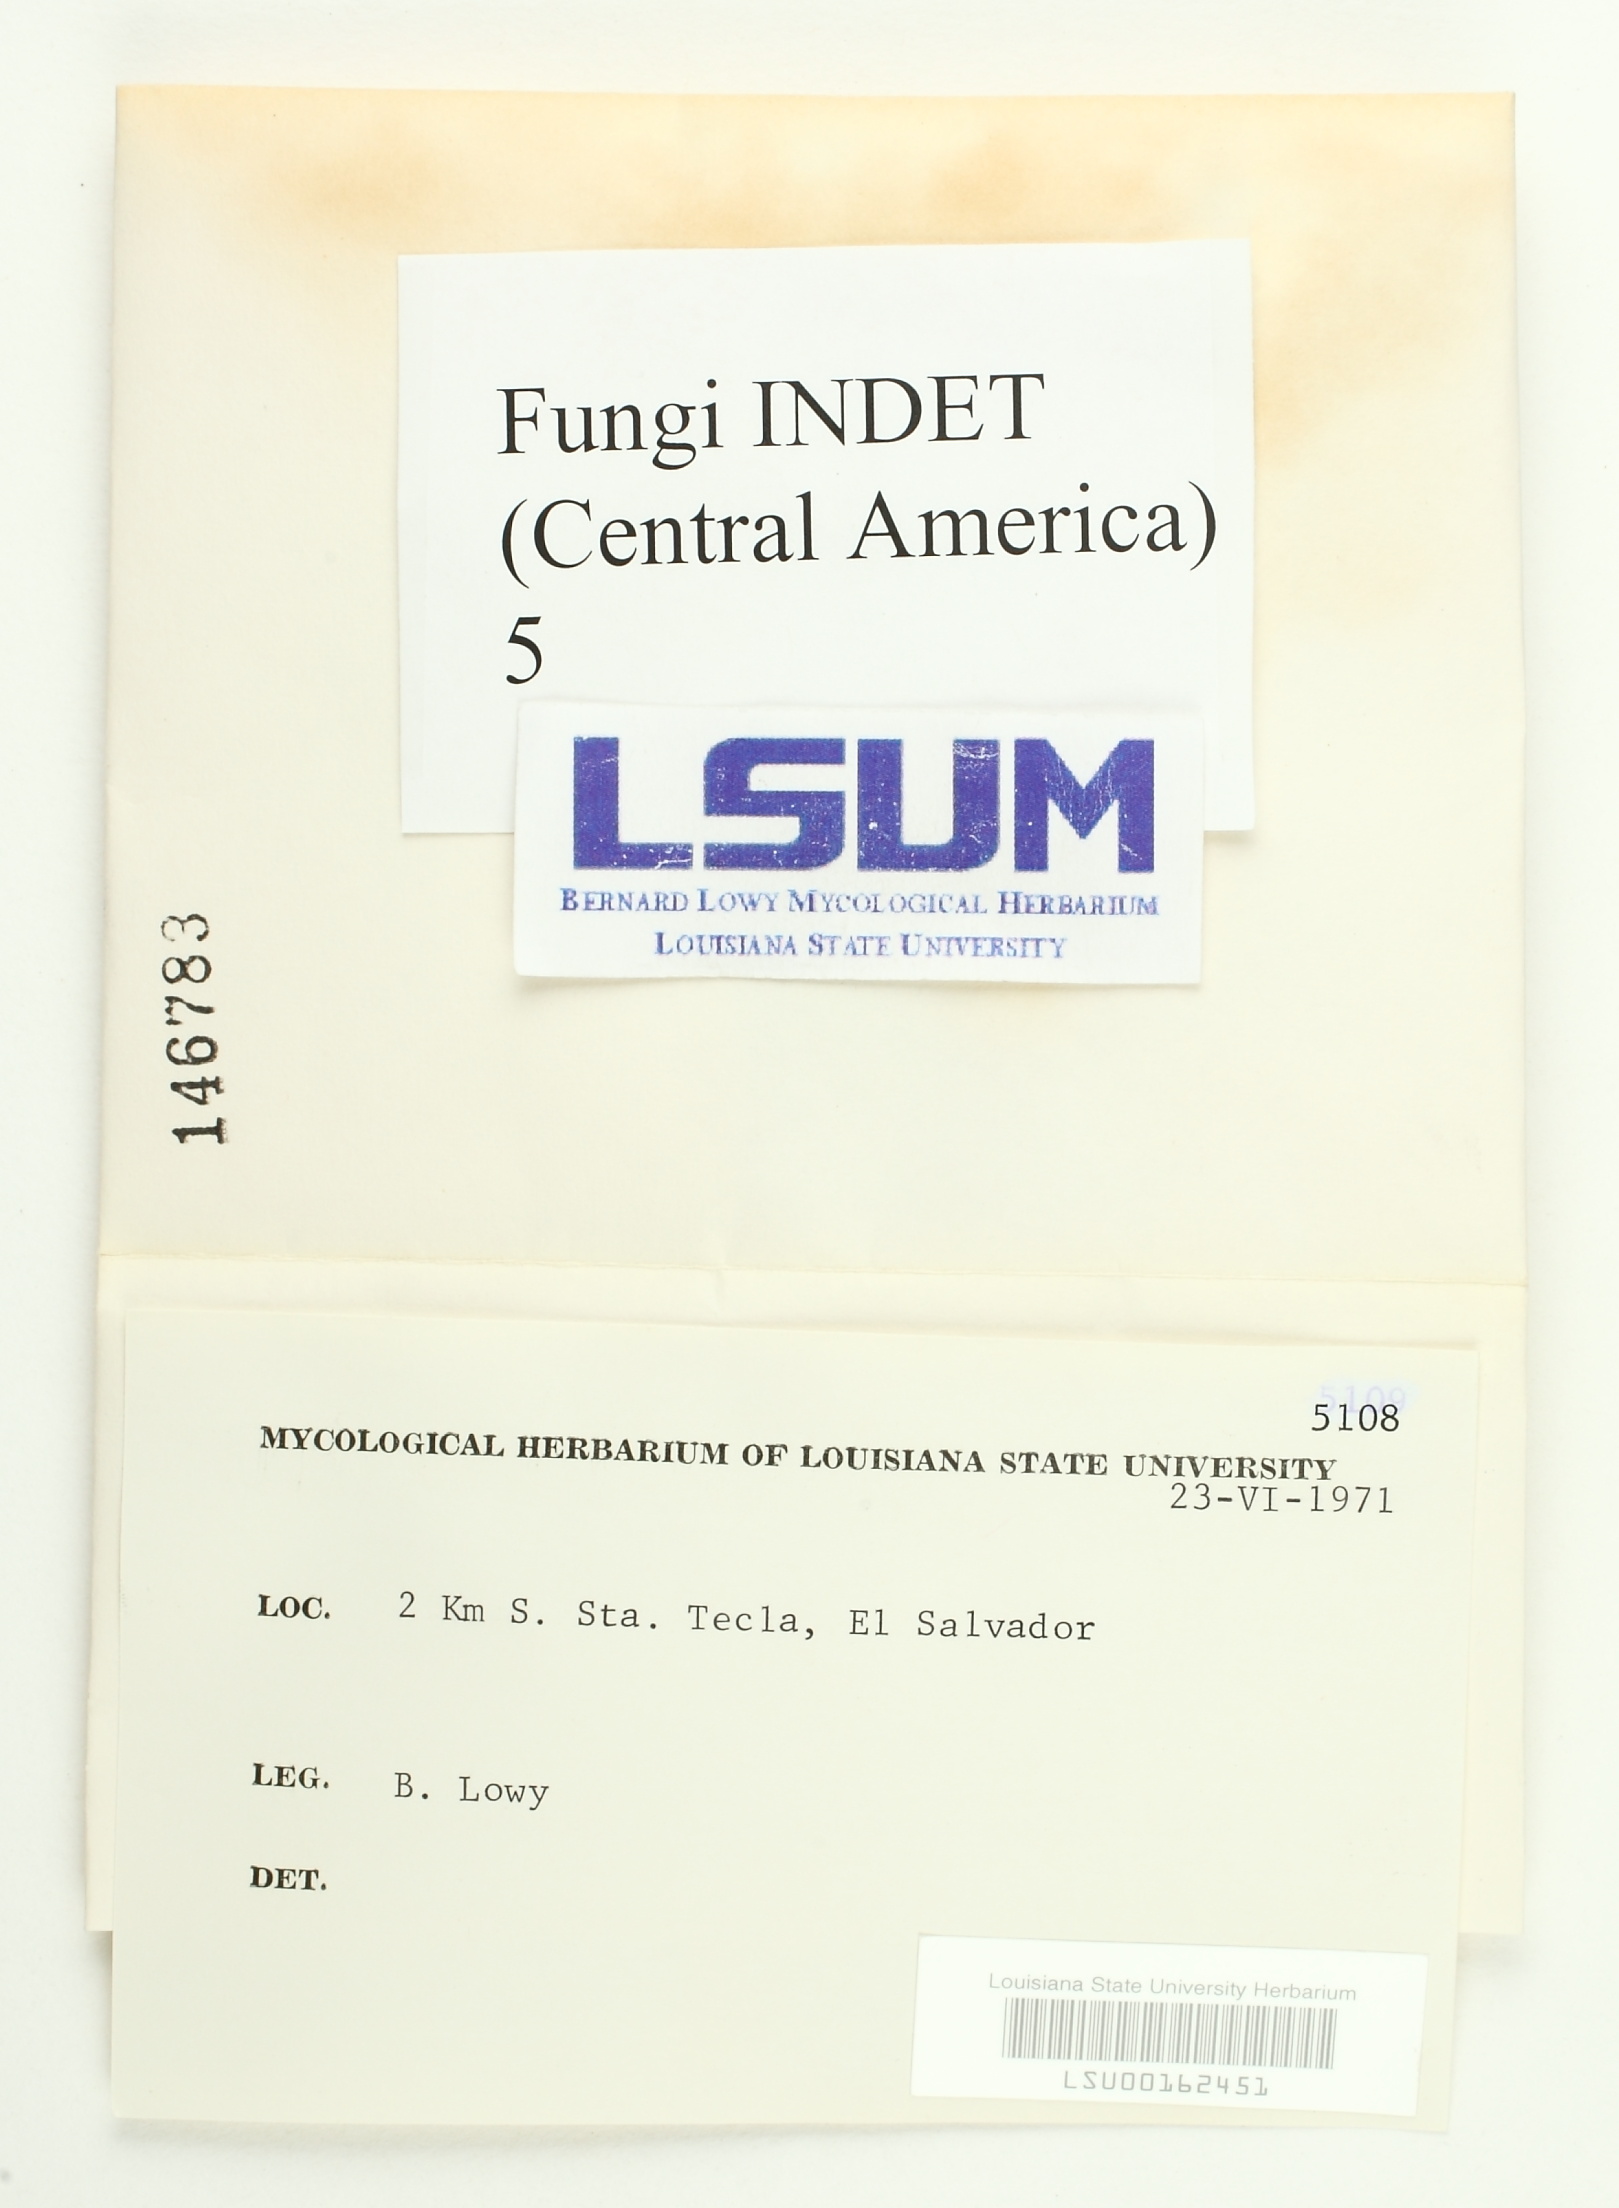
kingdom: Fungi
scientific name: Fungi
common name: Fungi
